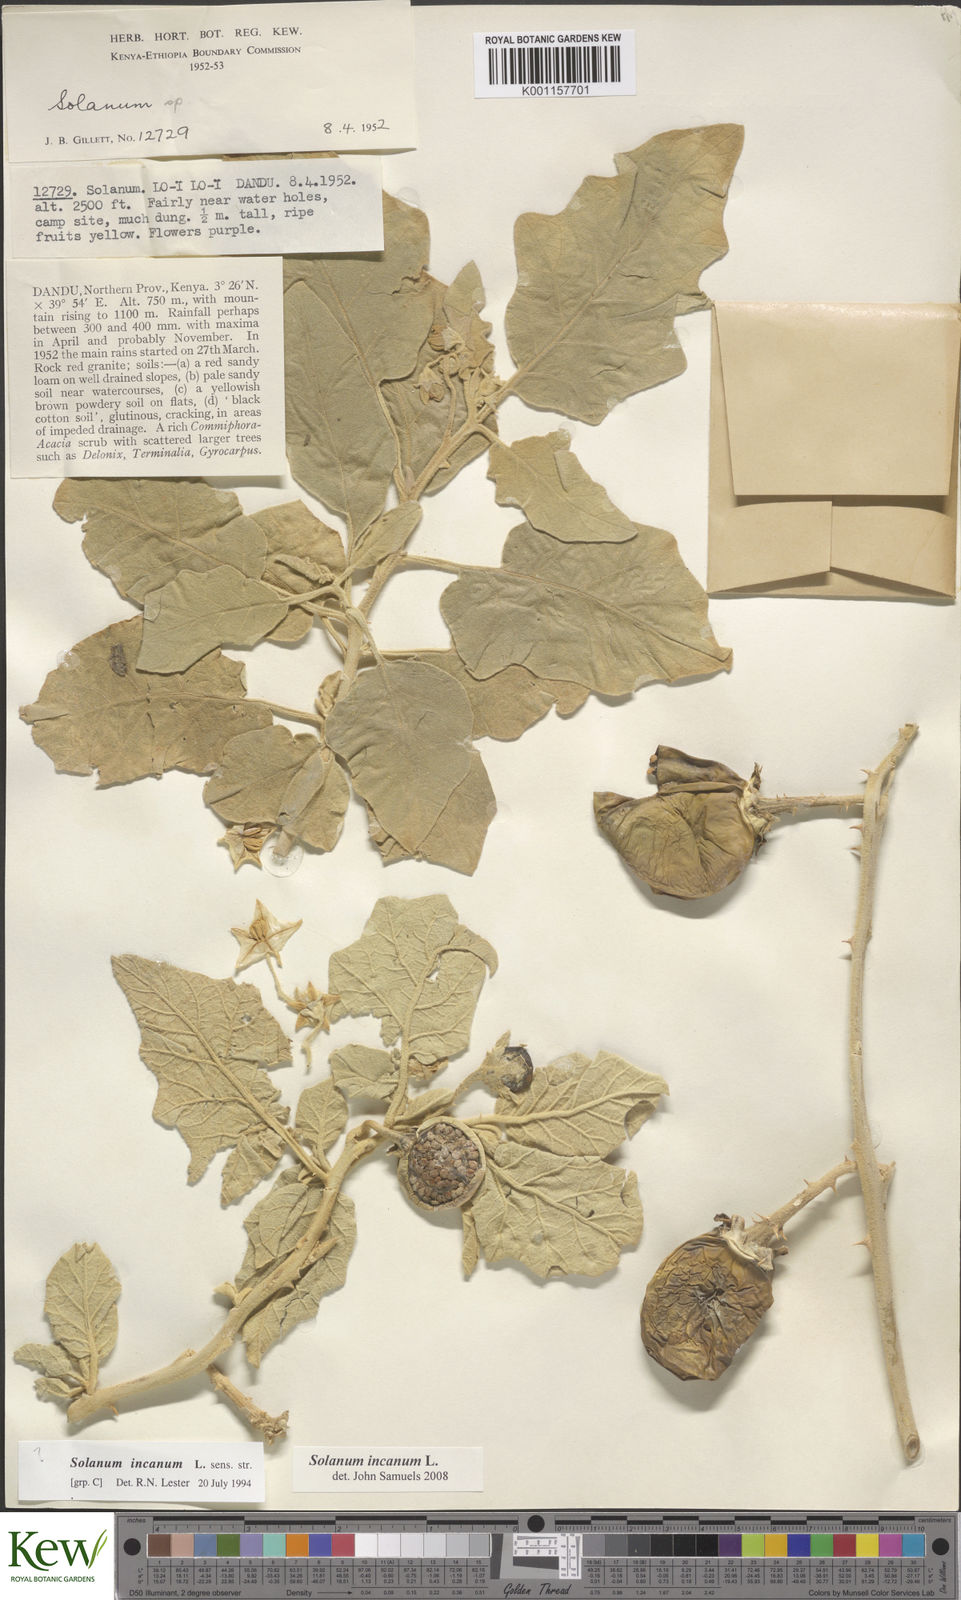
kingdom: Plantae
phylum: Tracheophyta
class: Magnoliopsida
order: Solanales
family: Solanaceae
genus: Solanum
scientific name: Solanum incanum
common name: Bitter apple
